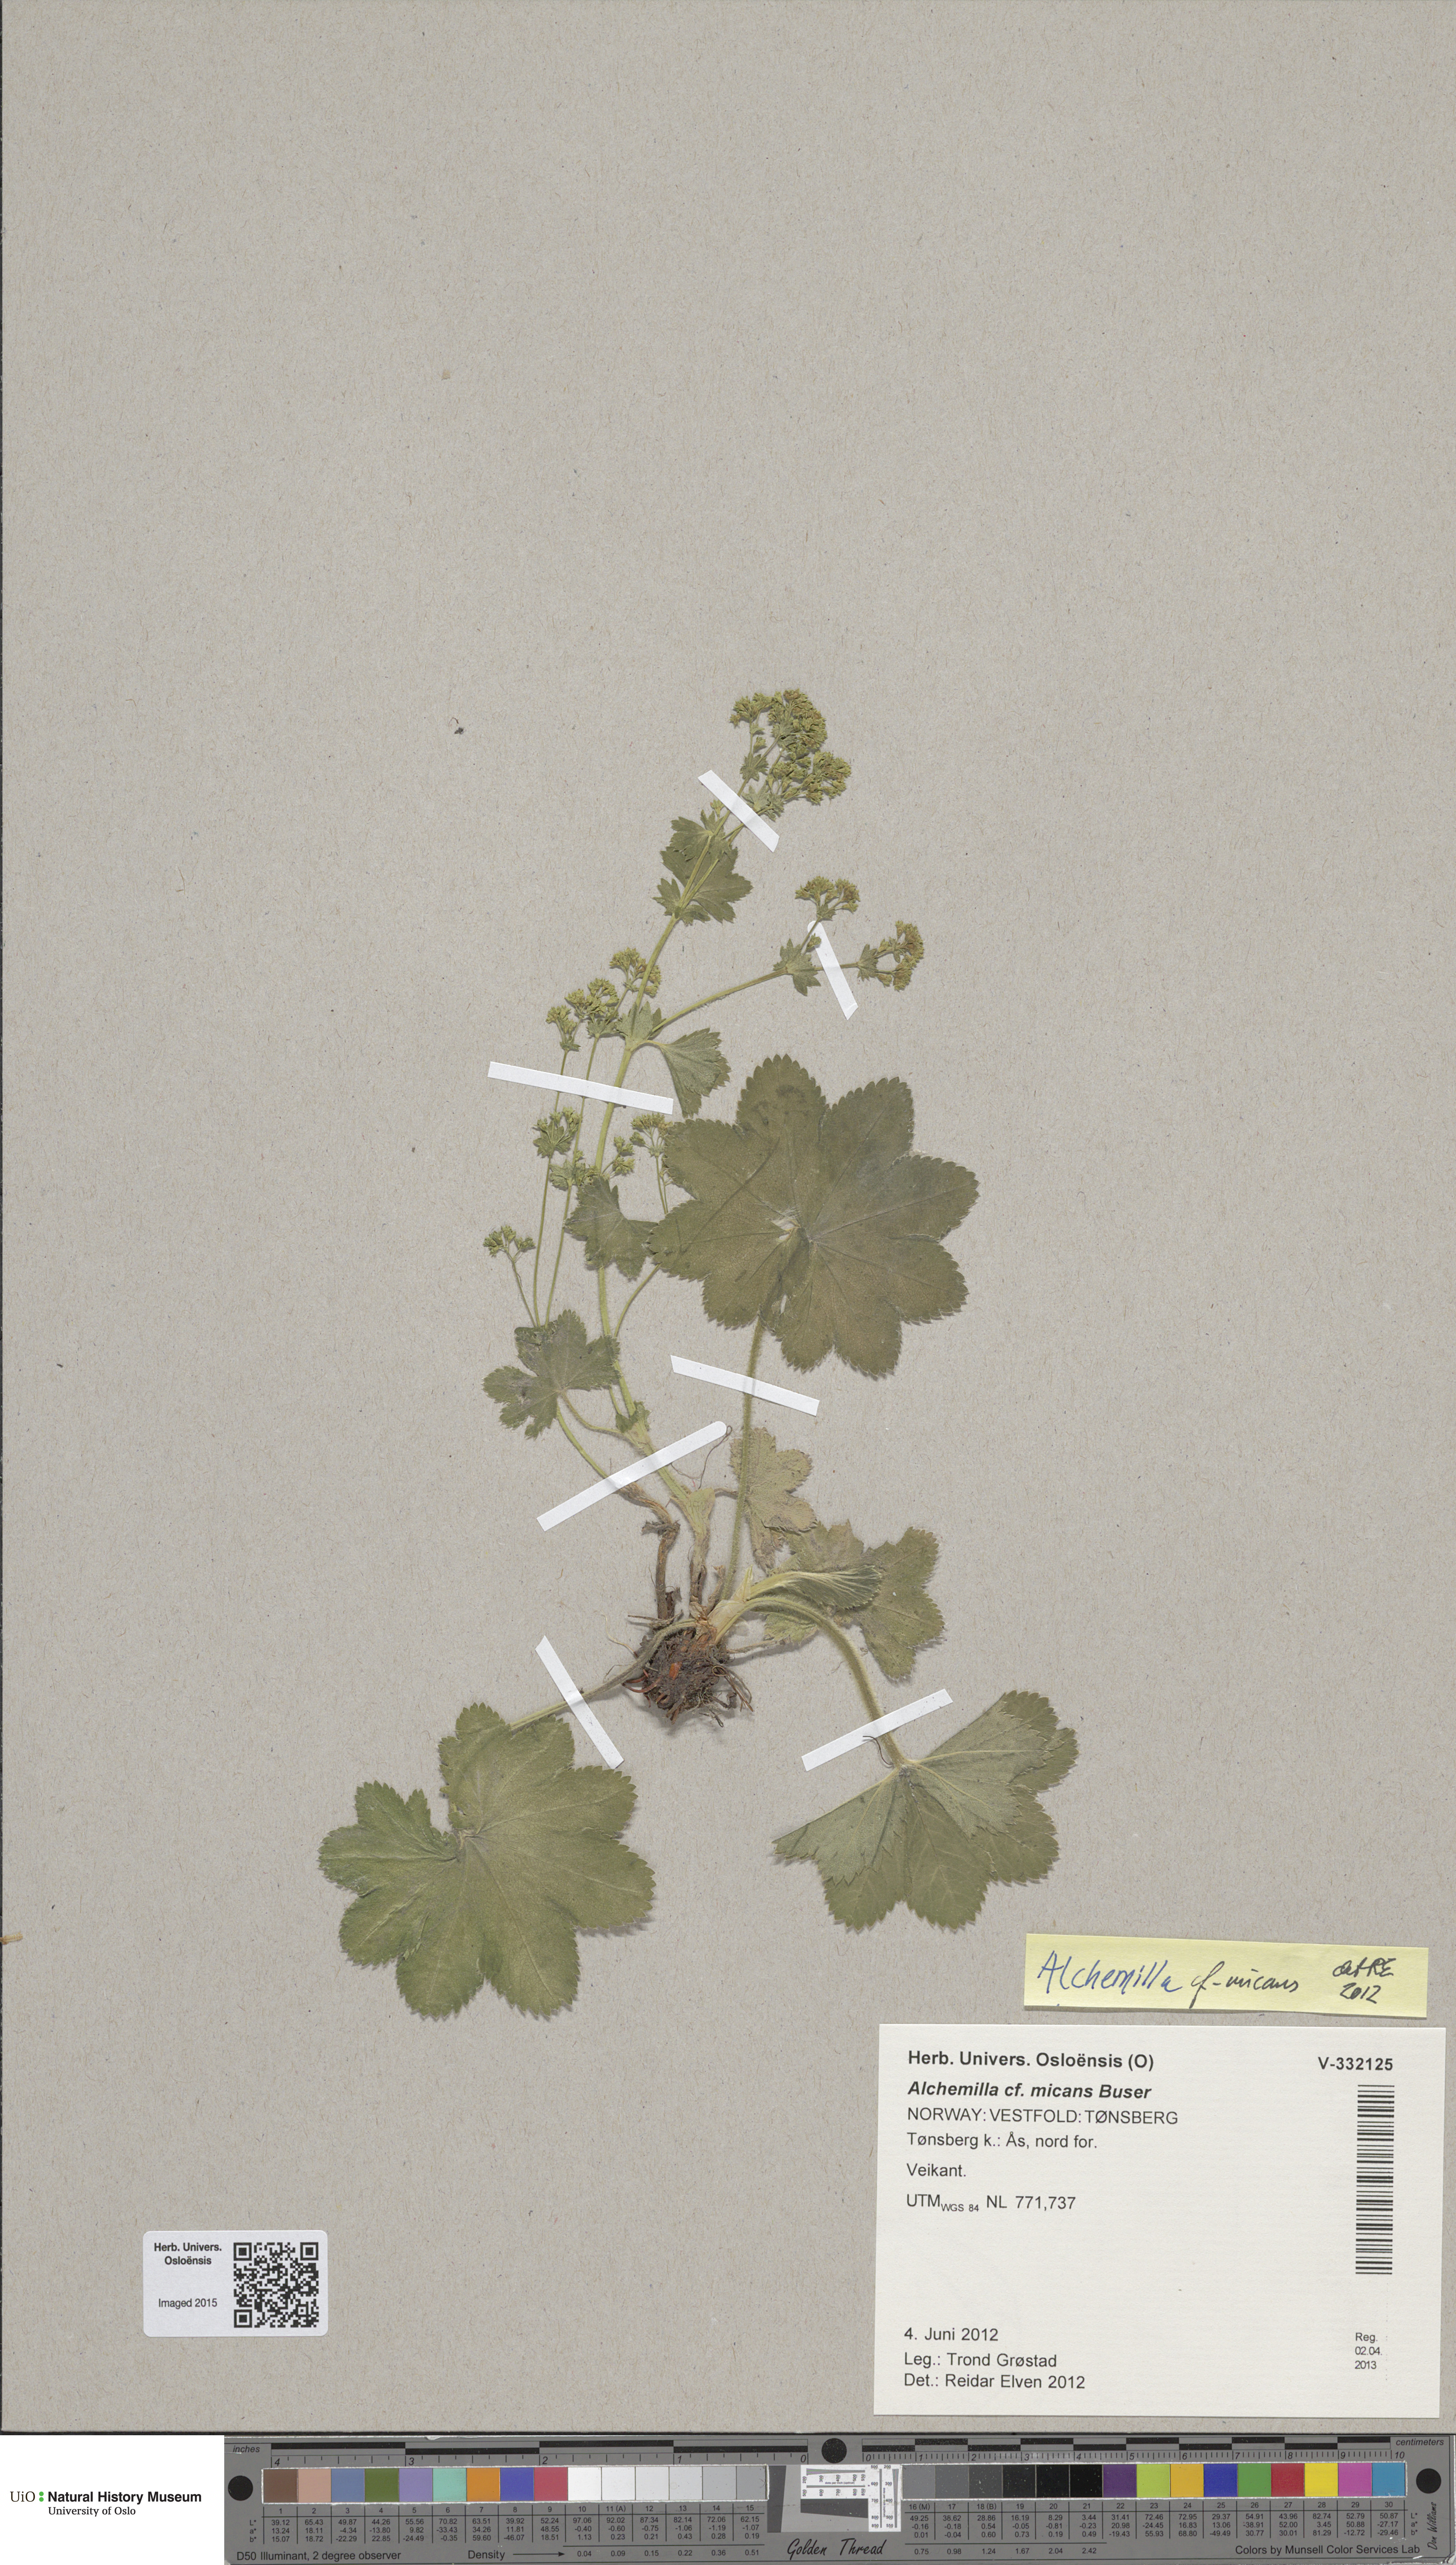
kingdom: Plantae
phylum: Tracheophyta
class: Magnoliopsida
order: Rosales
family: Rosaceae
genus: Alchemilla
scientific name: Alchemilla micans
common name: Gleaming lady's mantle
